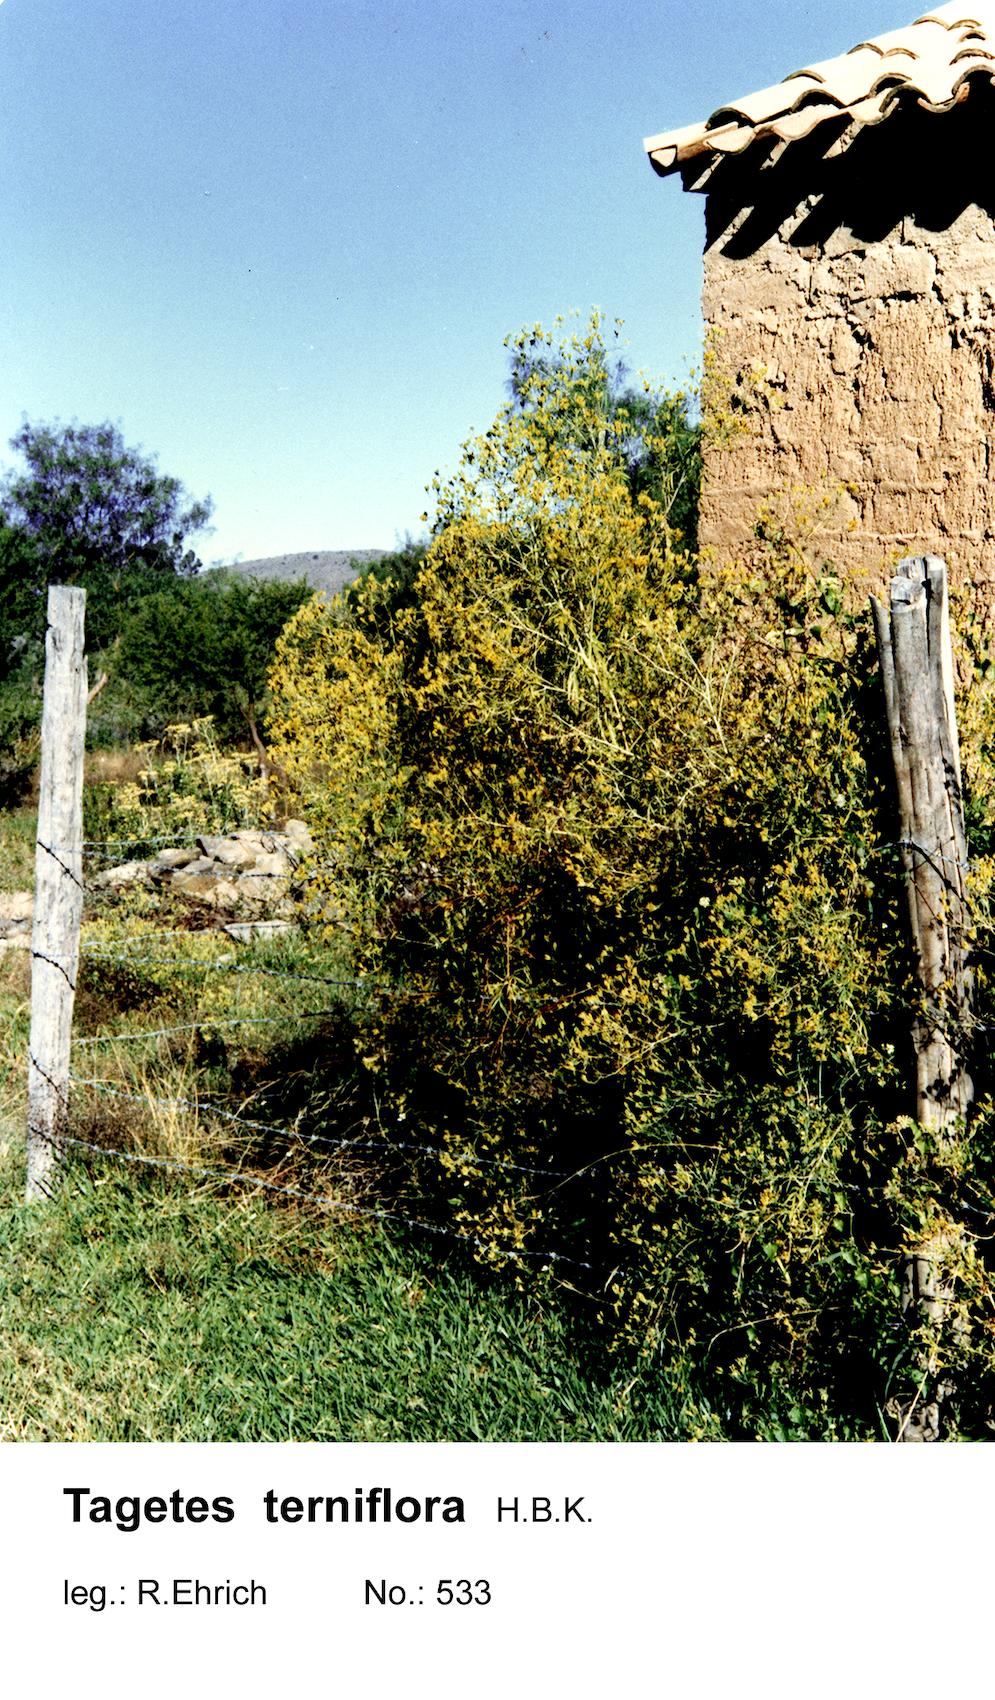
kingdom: Plantae
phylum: Tracheophyta
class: Magnoliopsida
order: Asterales
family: Asteraceae
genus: Tagetes
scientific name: Tagetes terniflora
